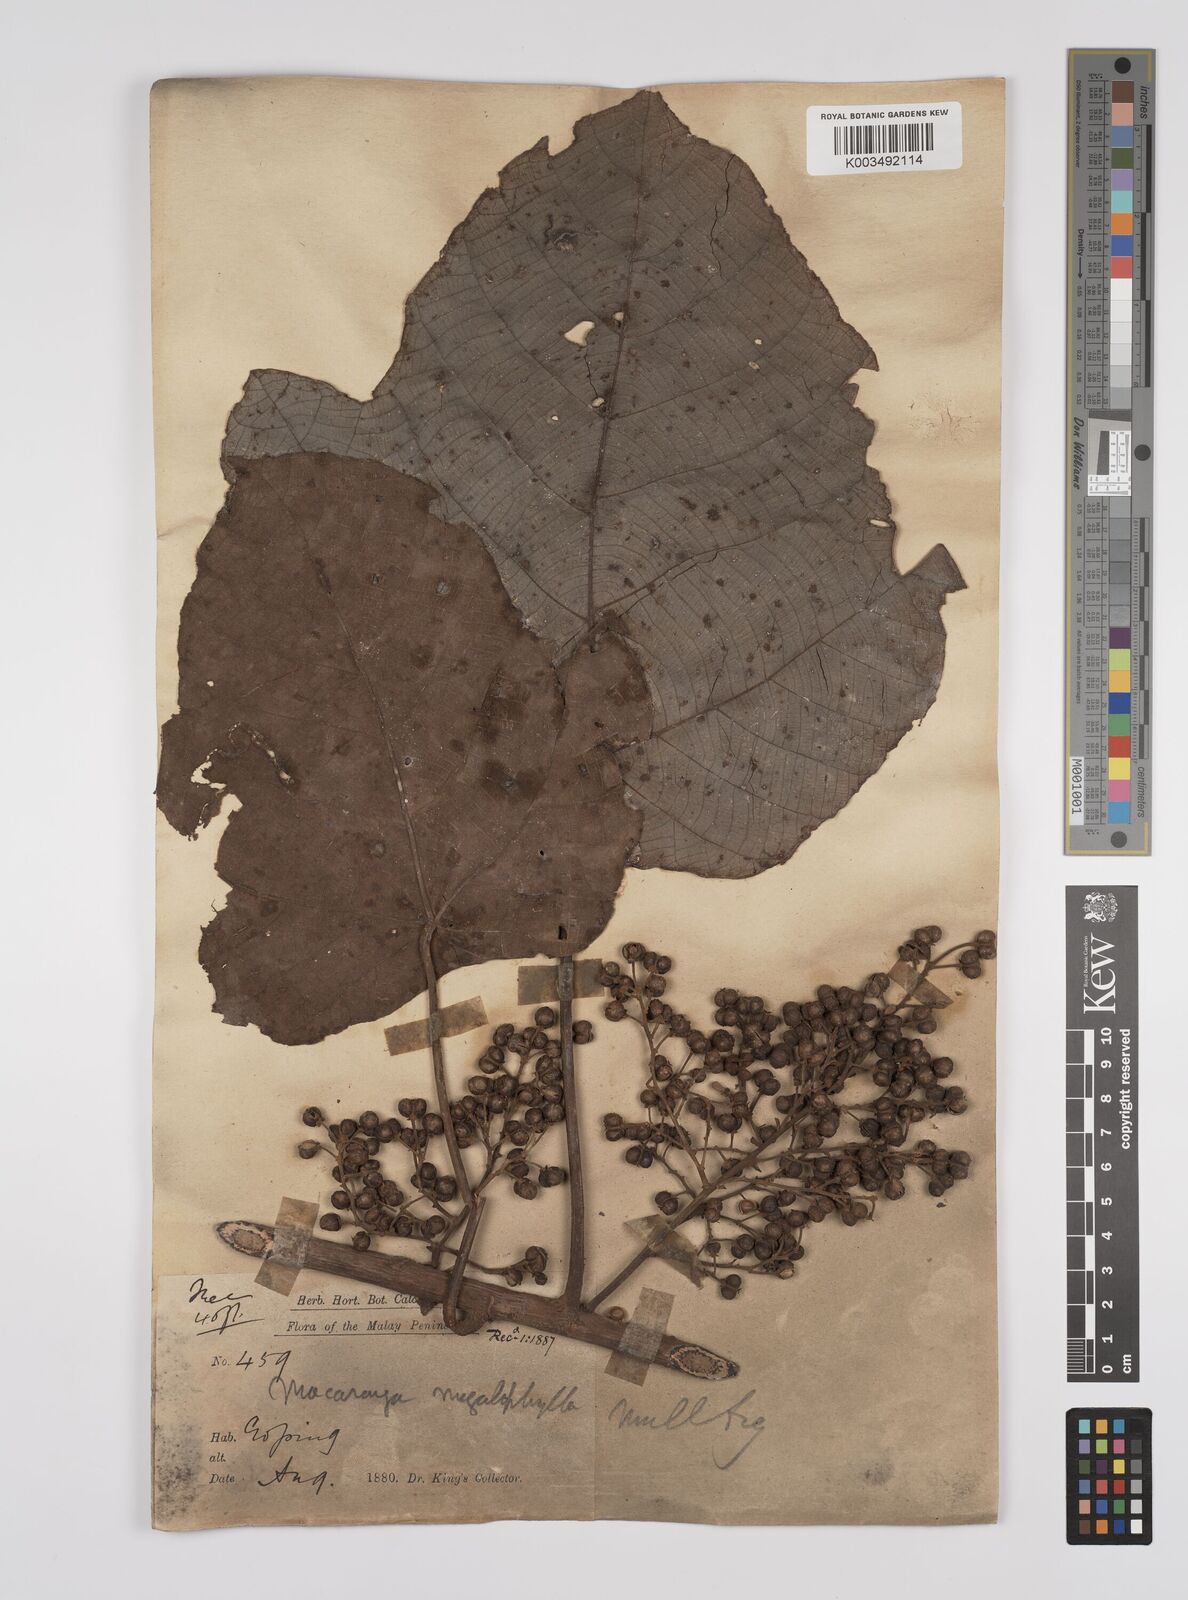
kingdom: Plantae
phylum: Tracheophyta
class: Magnoliopsida
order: Malpighiales
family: Euphorbiaceae
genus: Macaranga
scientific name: Macaranga gigantea
